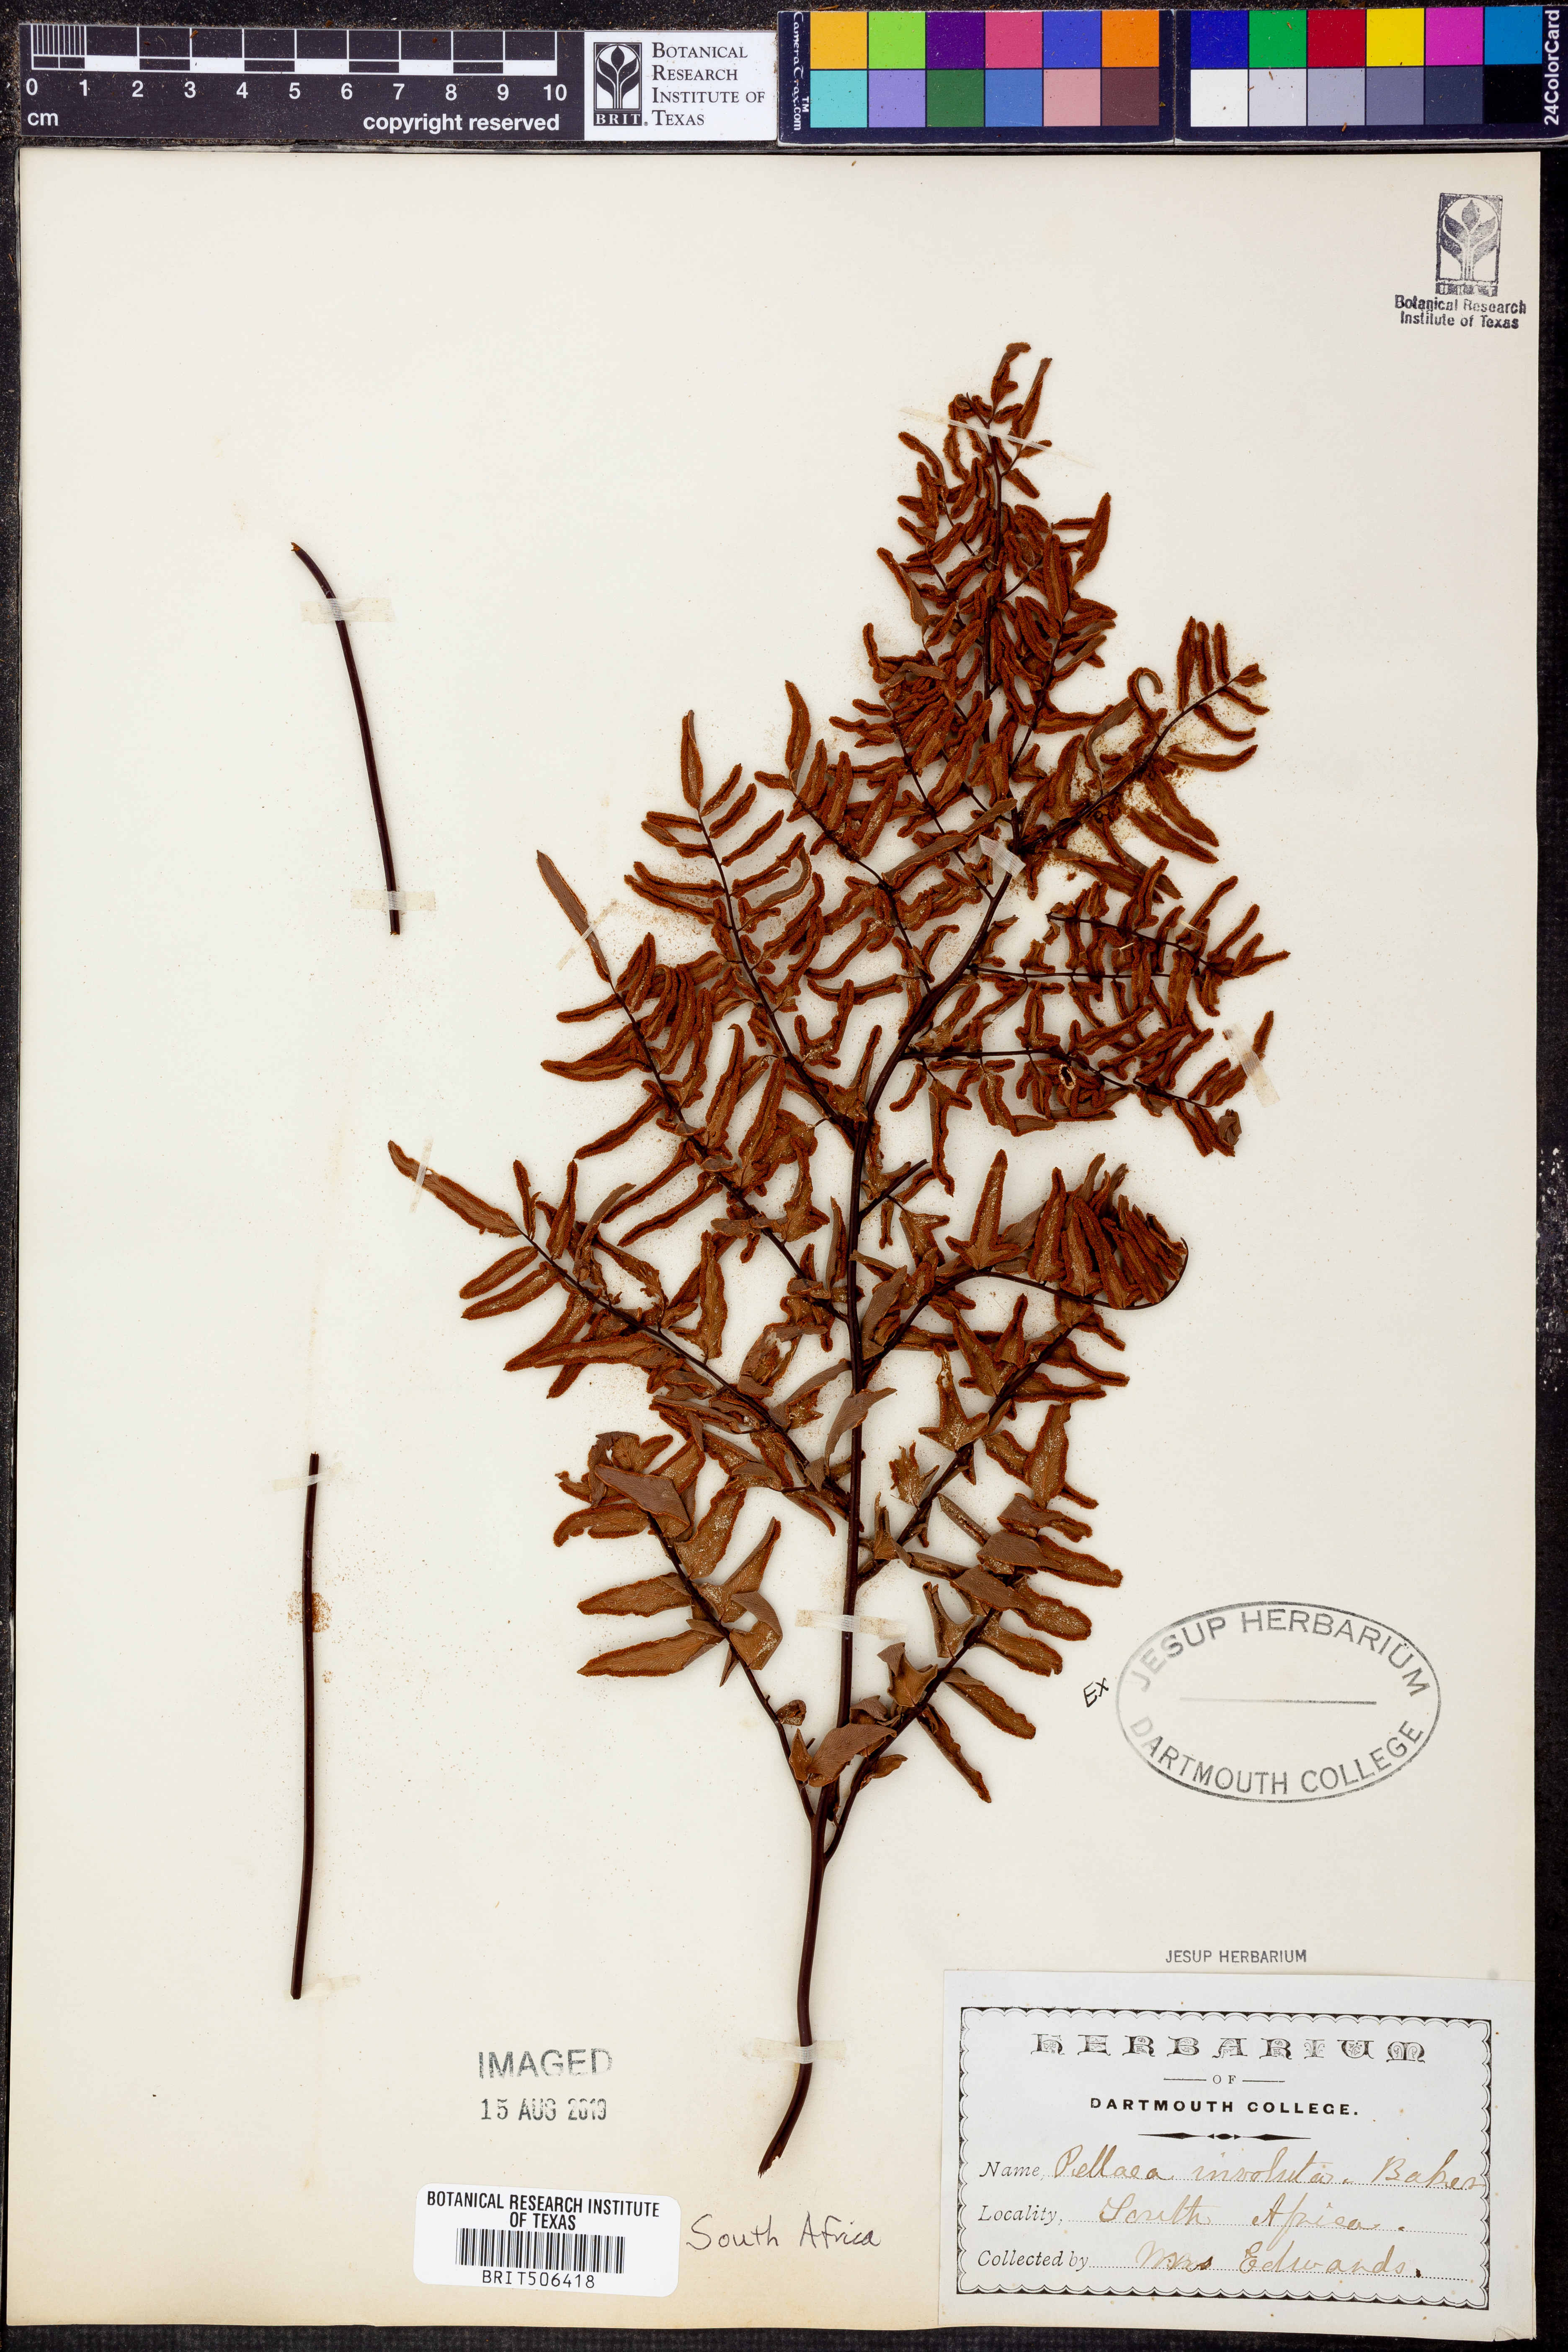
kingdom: Plantae
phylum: Tracheophyta
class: Polypodiopsida
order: Polypodiales
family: Pteridaceae
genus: Cheilanthes
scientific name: Cheilanthes involuta
